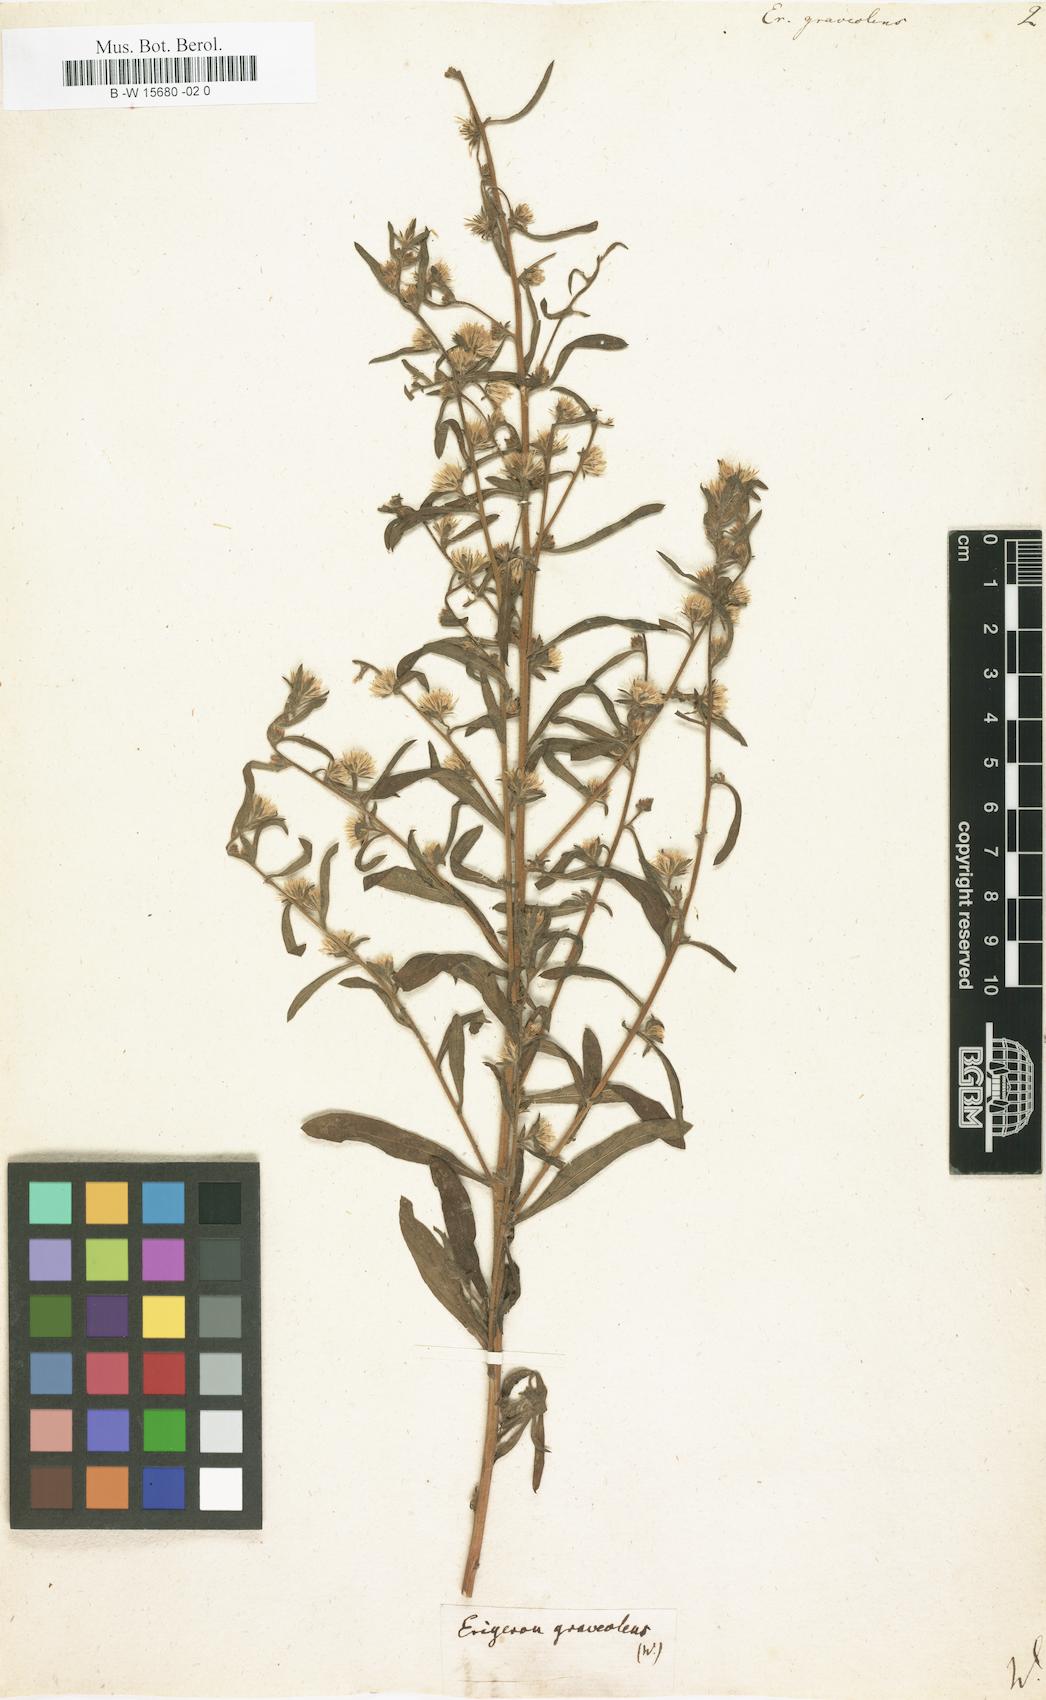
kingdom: Plantae
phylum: Tracheophyta
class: Magnoliopsida
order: Asterales
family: Asteraceae
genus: Dittrichia
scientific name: Dittrichia graveolens
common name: Stinking fleabane
